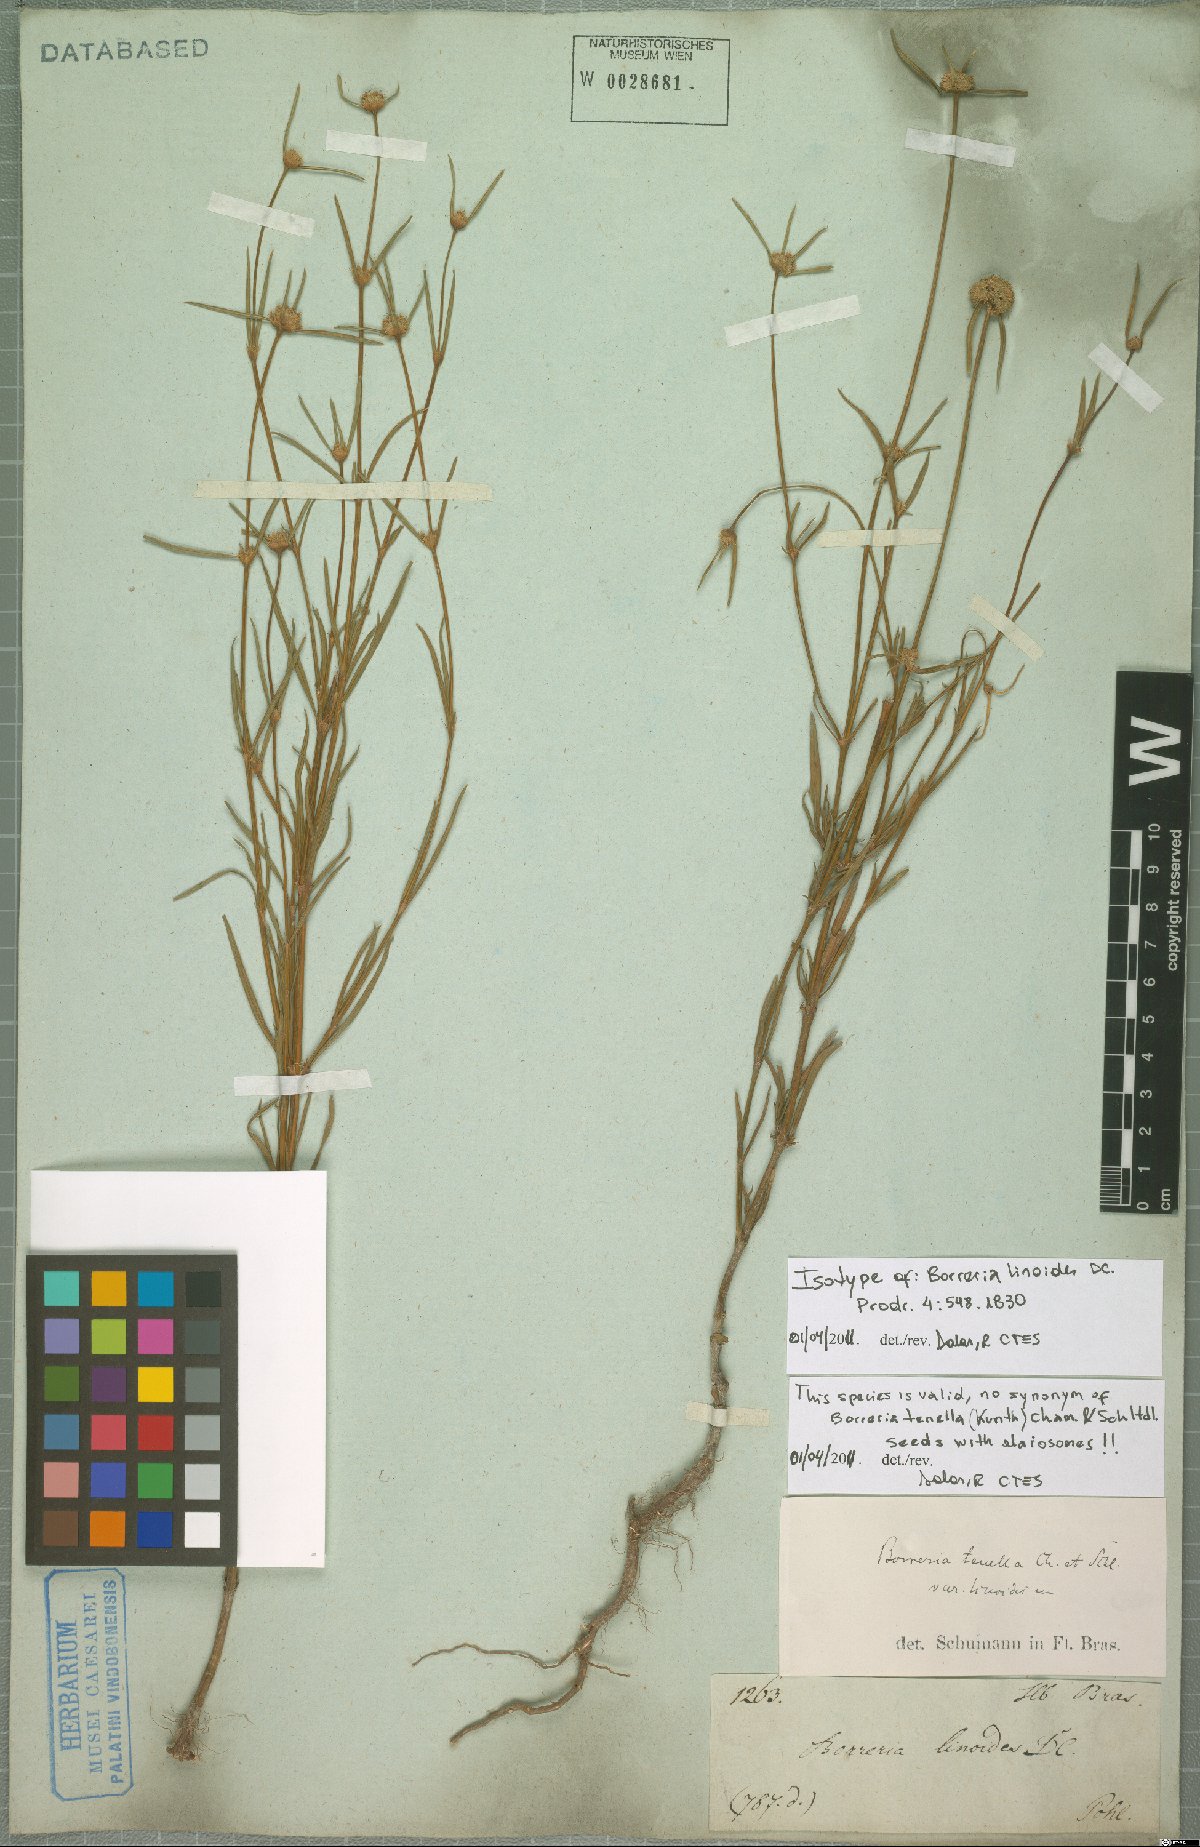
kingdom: Plantae
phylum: Tracheophyta
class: Magnoliopsida
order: Gentianales
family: Rubiaceae
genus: Spermacoce
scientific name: Spermacoce linoides
